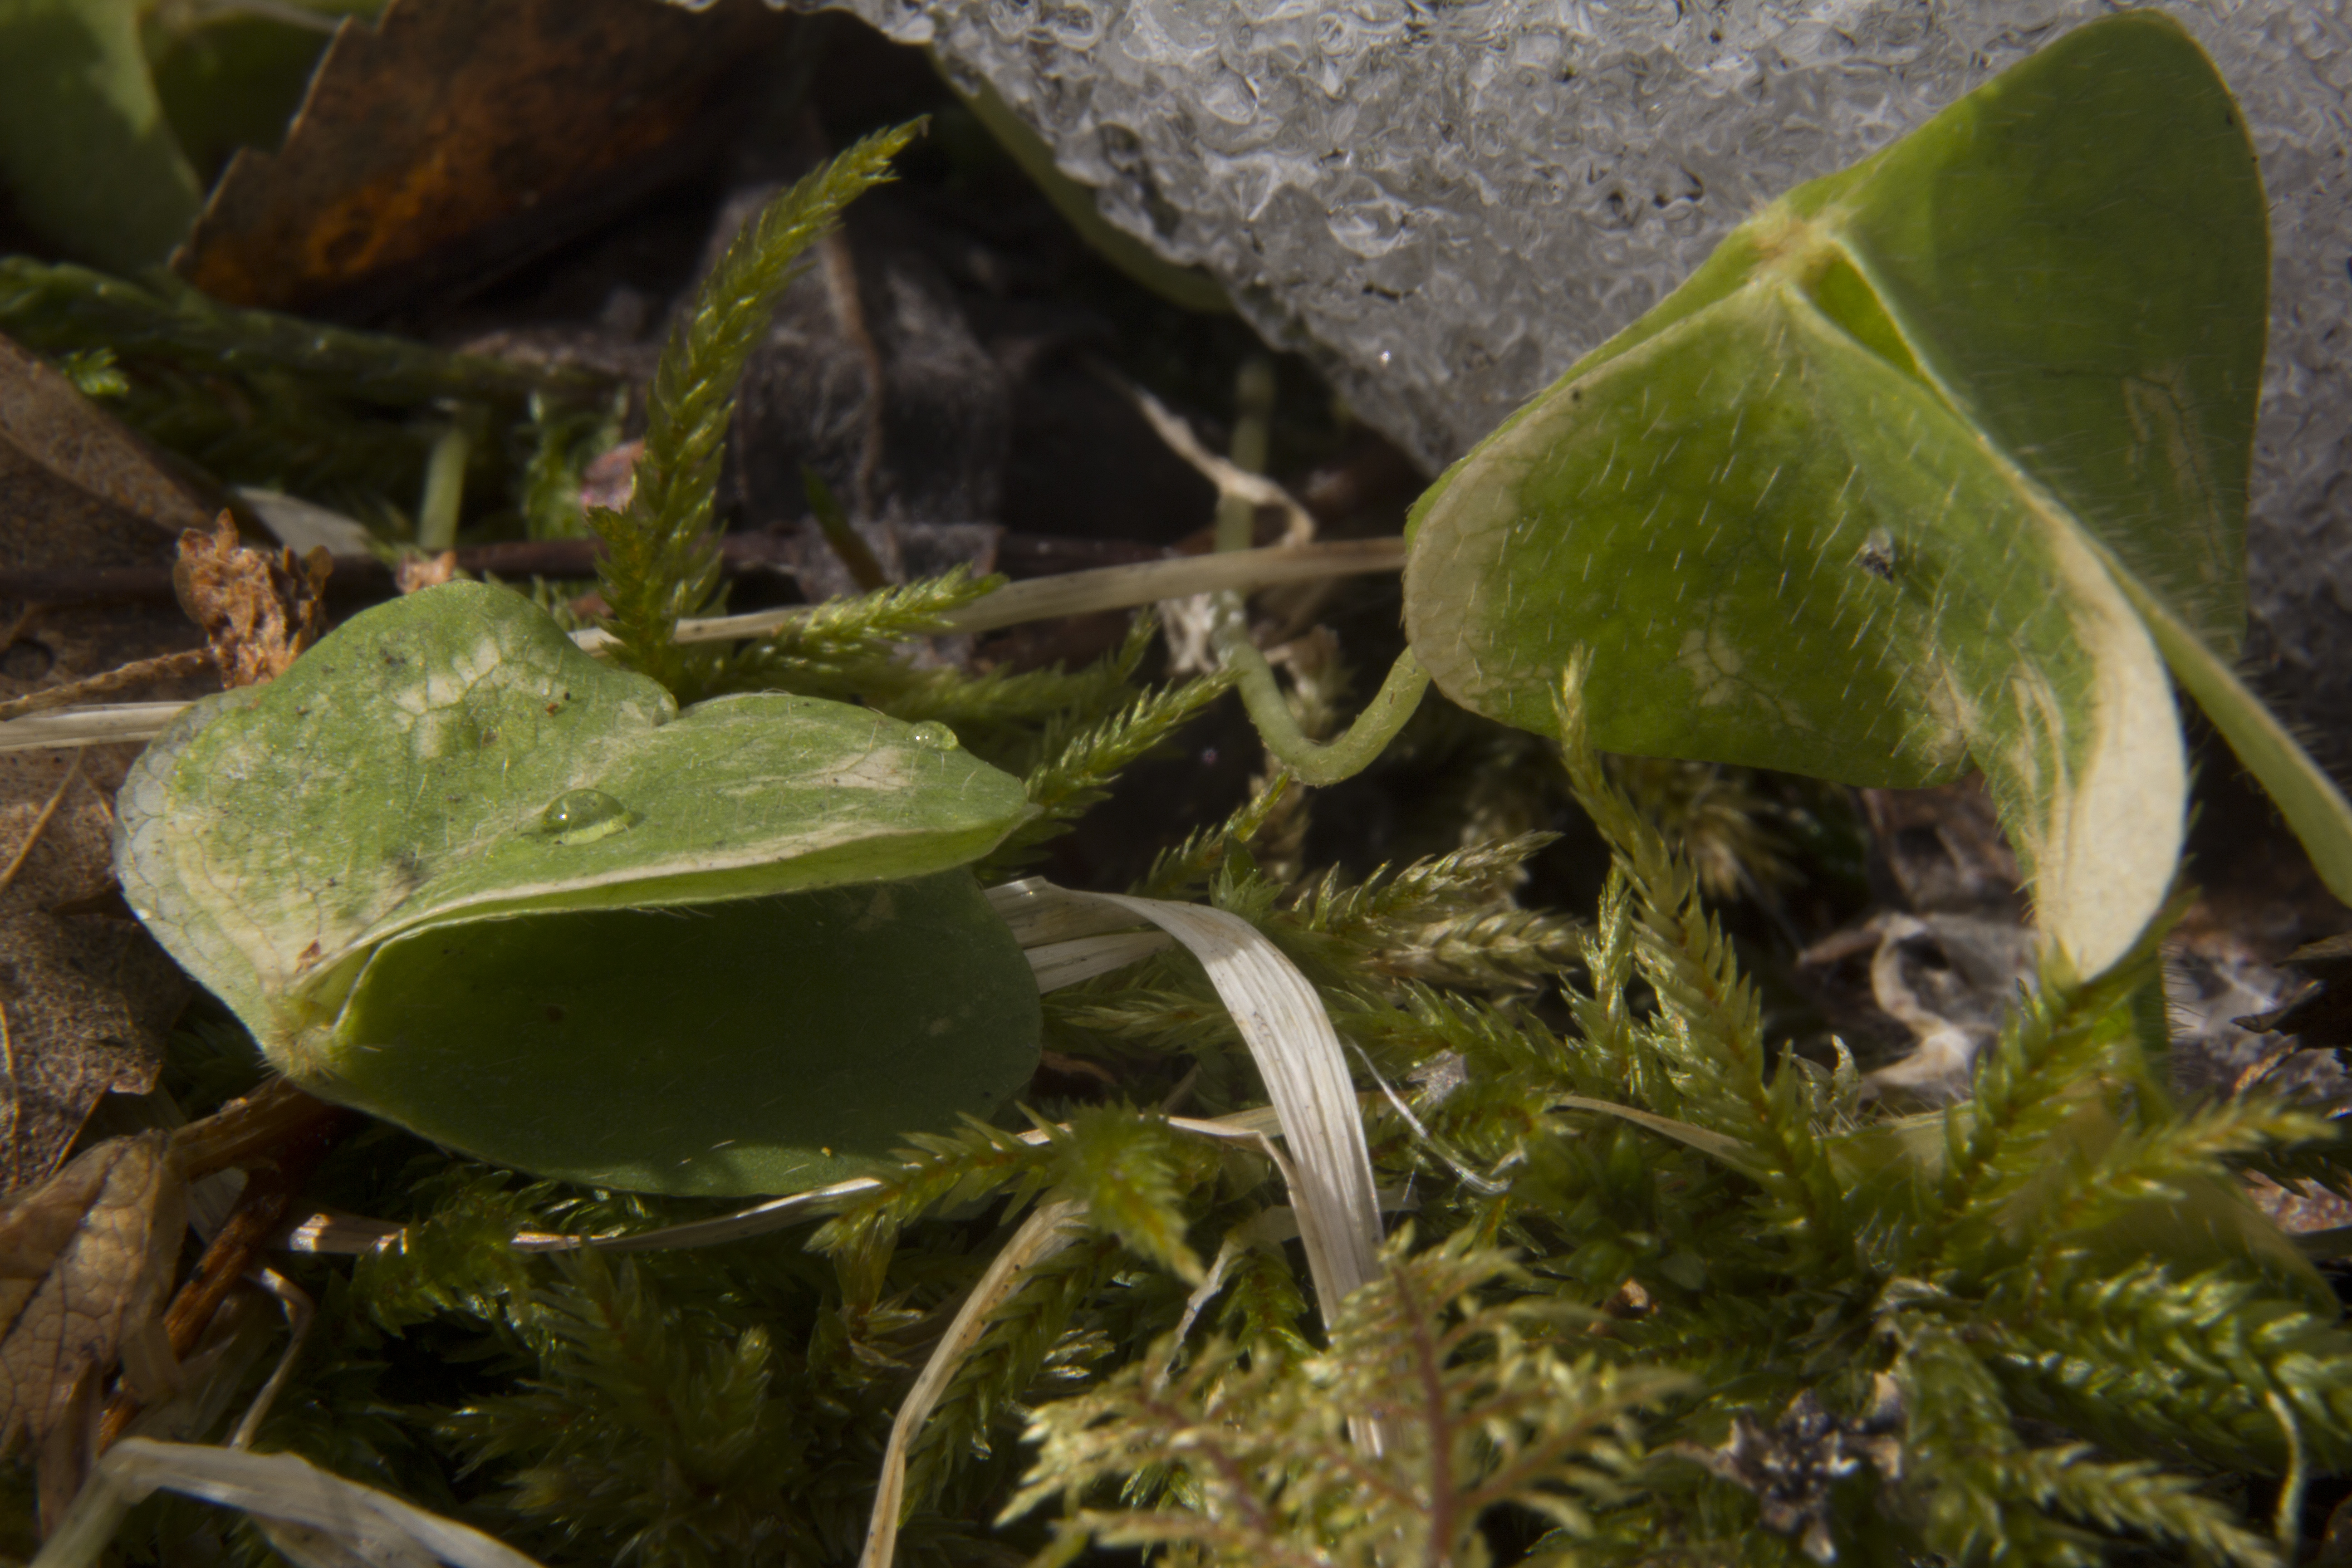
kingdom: Plantae
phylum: Tracheophyta
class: Magnoliopsida
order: Oxalidales
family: Oxalidaceae
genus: Oxalis
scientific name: Oxalis acetosella
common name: Wood-sorrel
